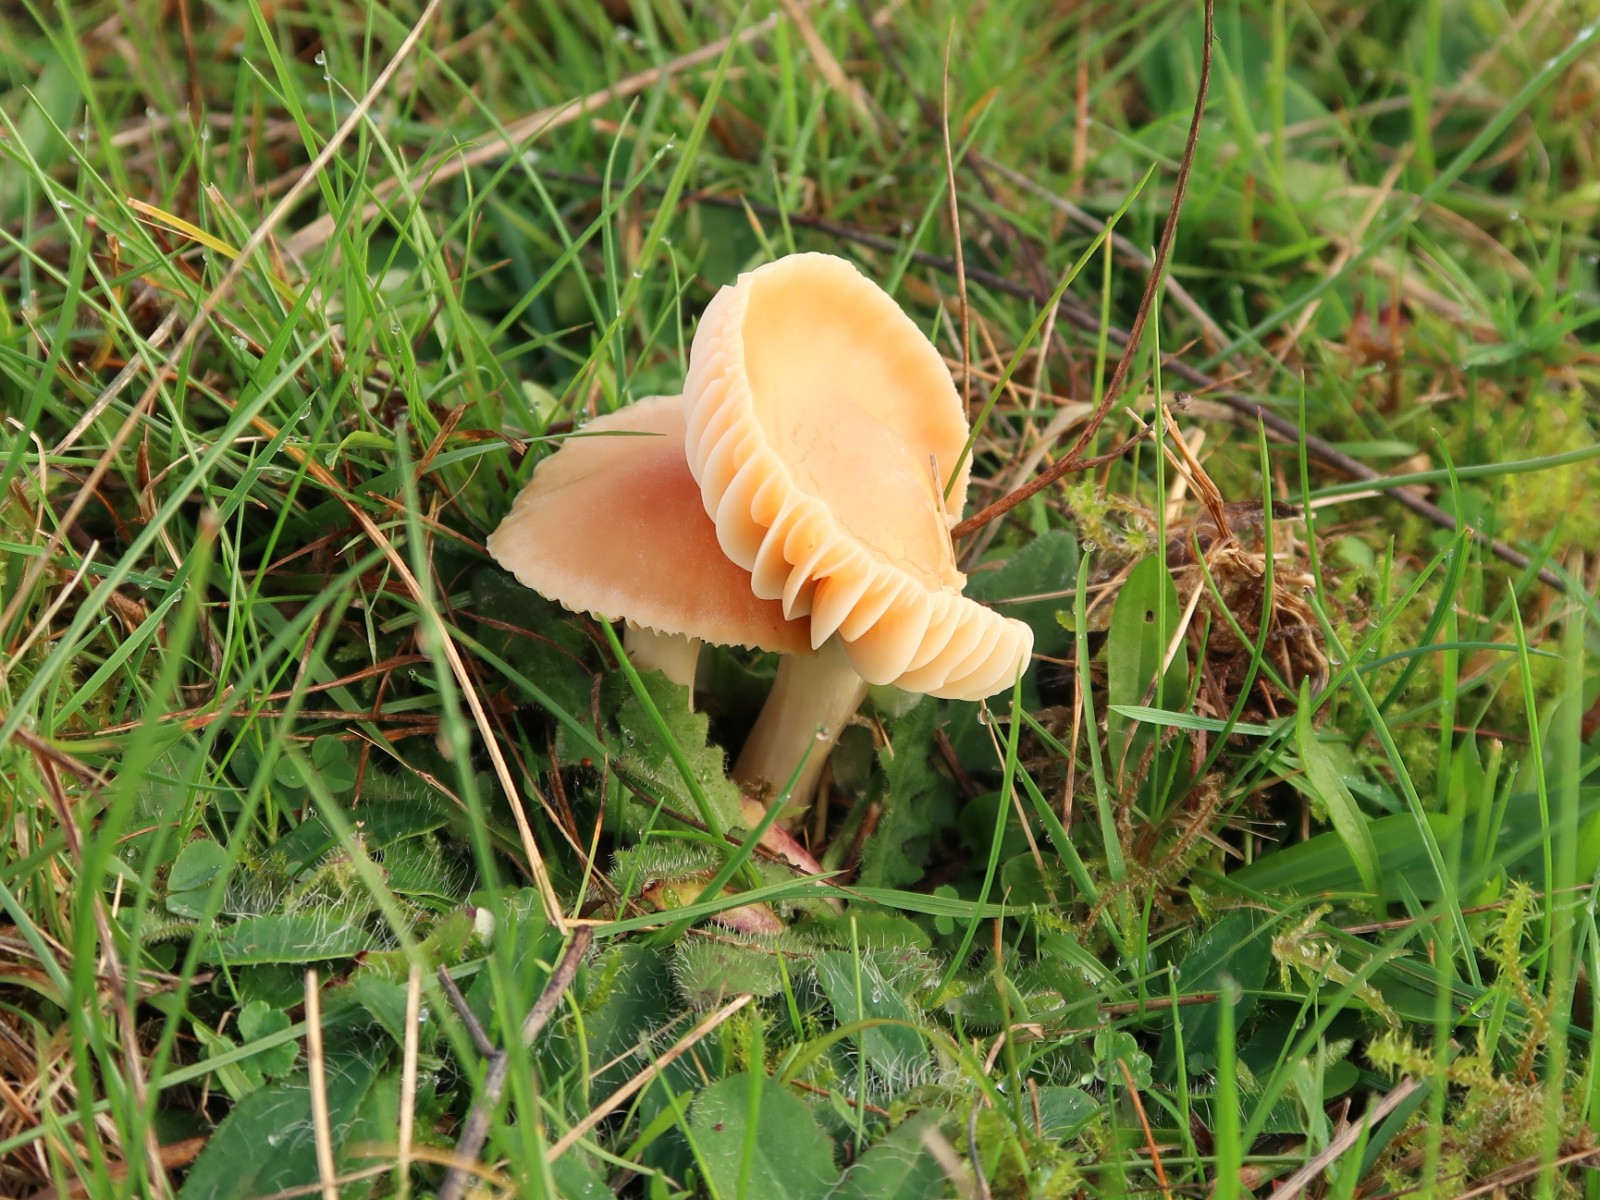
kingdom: Fungi
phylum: Basidiomycota
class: Agaricomycetes
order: Agaricales
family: Hygrophoraceae
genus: Cuphophyllus
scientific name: Cuphophyllus pratensis
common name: eng-vokshat
